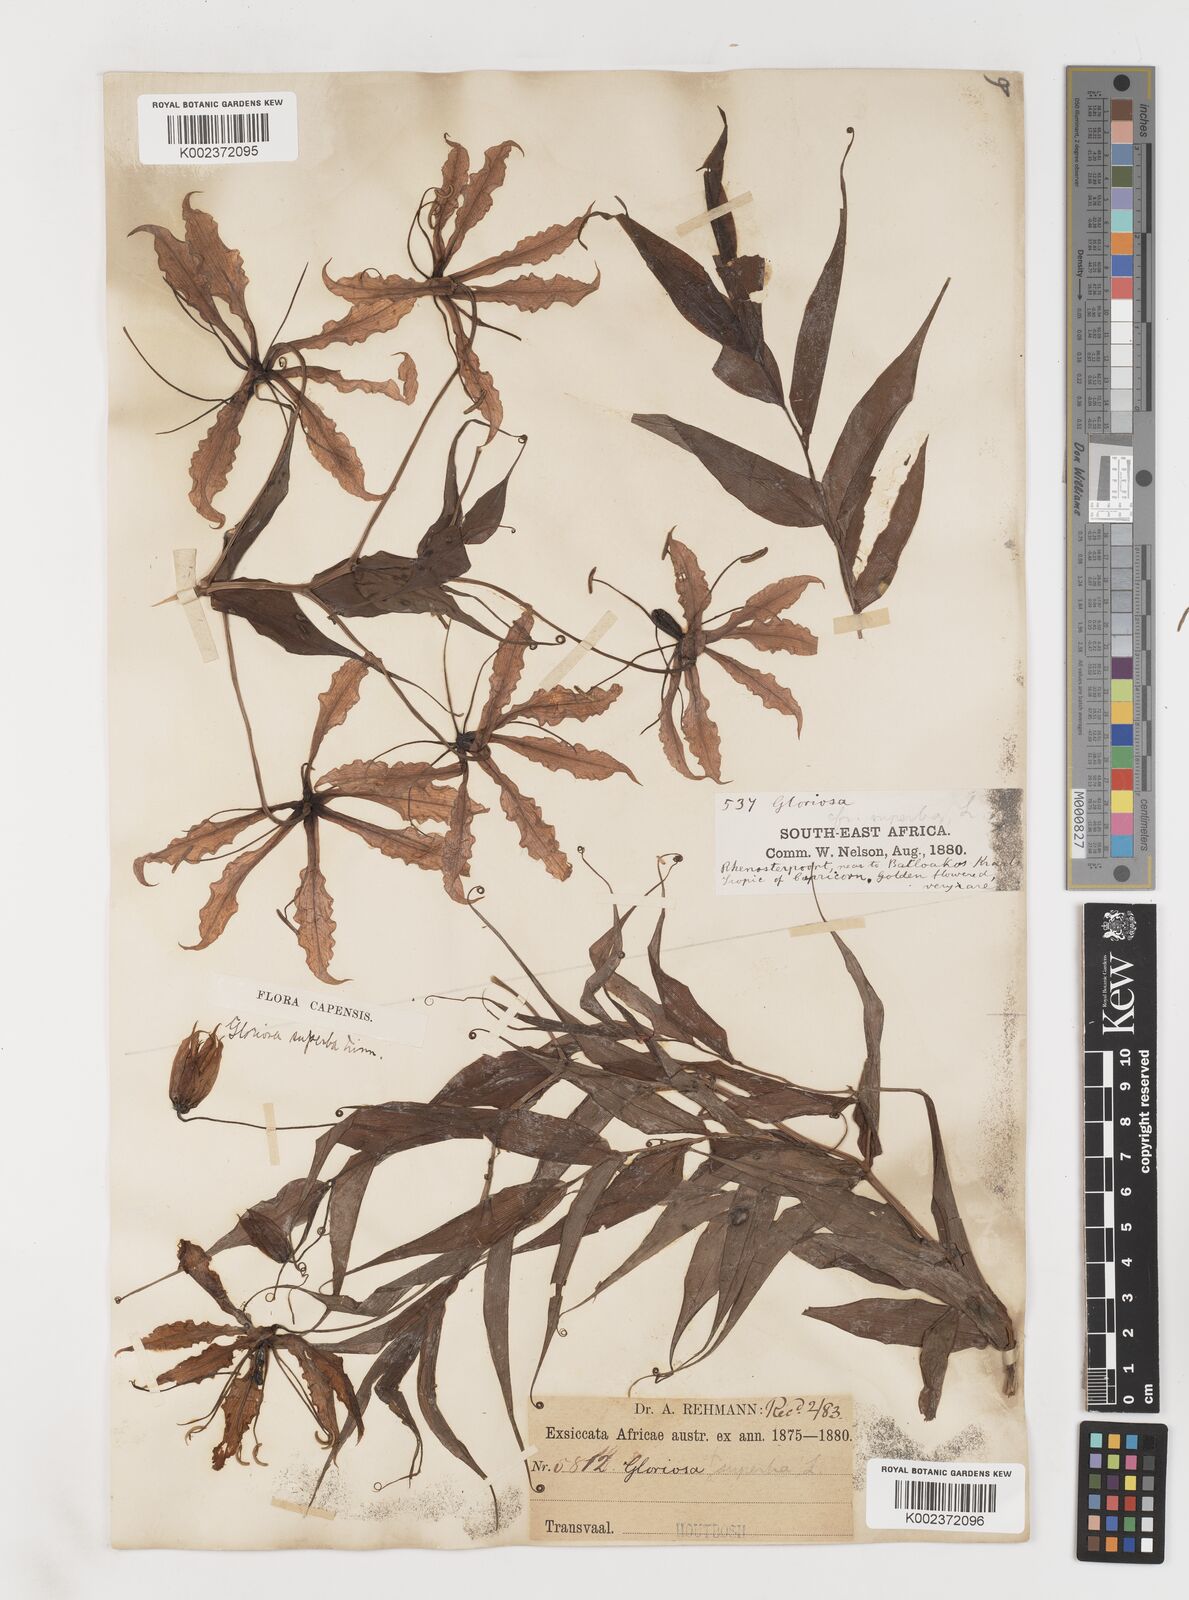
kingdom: Plantae
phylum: Tracheophyta
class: Liliopsida
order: Liliales
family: Colchicaceae
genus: Gloriosa
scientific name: Gloriosa superba
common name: Flame lily
